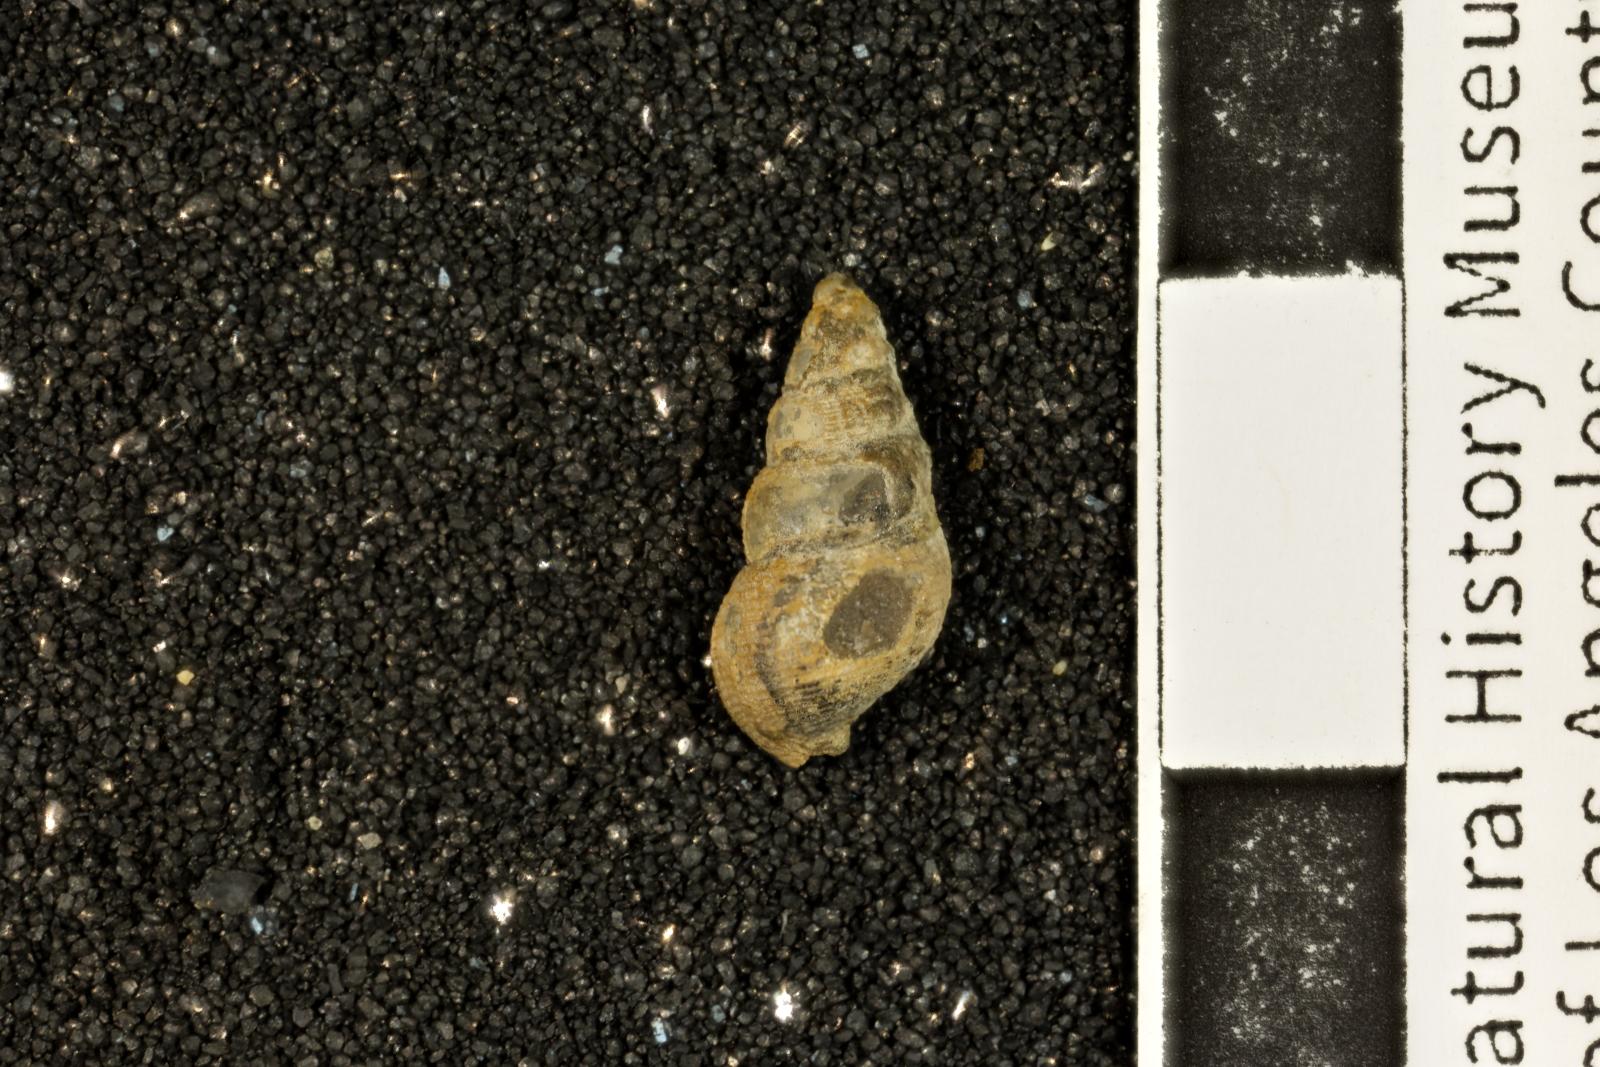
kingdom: Animalia
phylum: Mollusca
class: Gastropoda
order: Neogastropoda
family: Maturifusidae
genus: Astandes
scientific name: Astandes salsa
